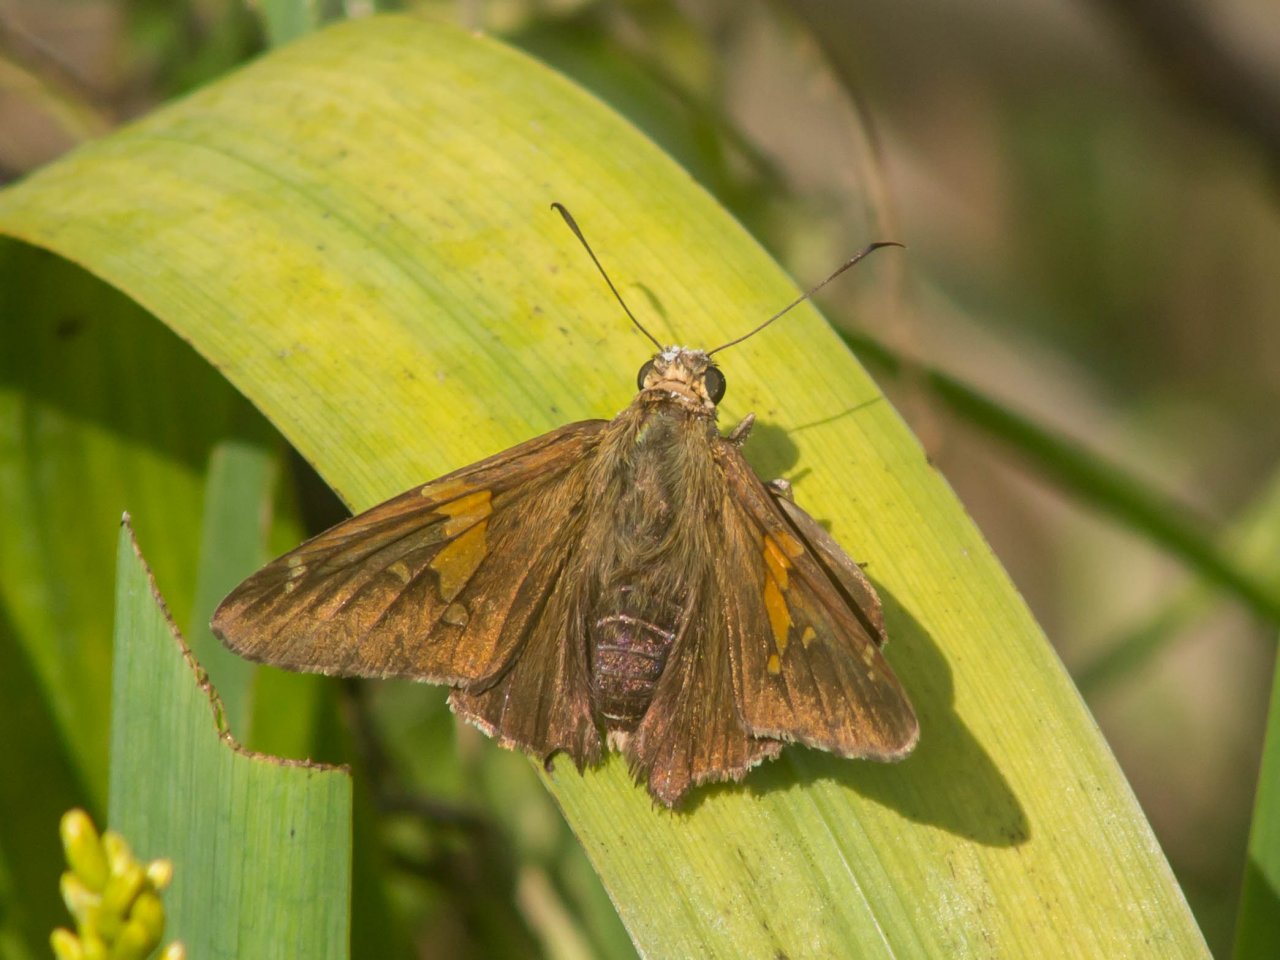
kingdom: Animalia
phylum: Arthropoda
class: Insecta
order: Lepidoptera
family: Hesperiidae
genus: Epargyreus
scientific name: Epargyreus clarus
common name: Silver-spotted Skipper
